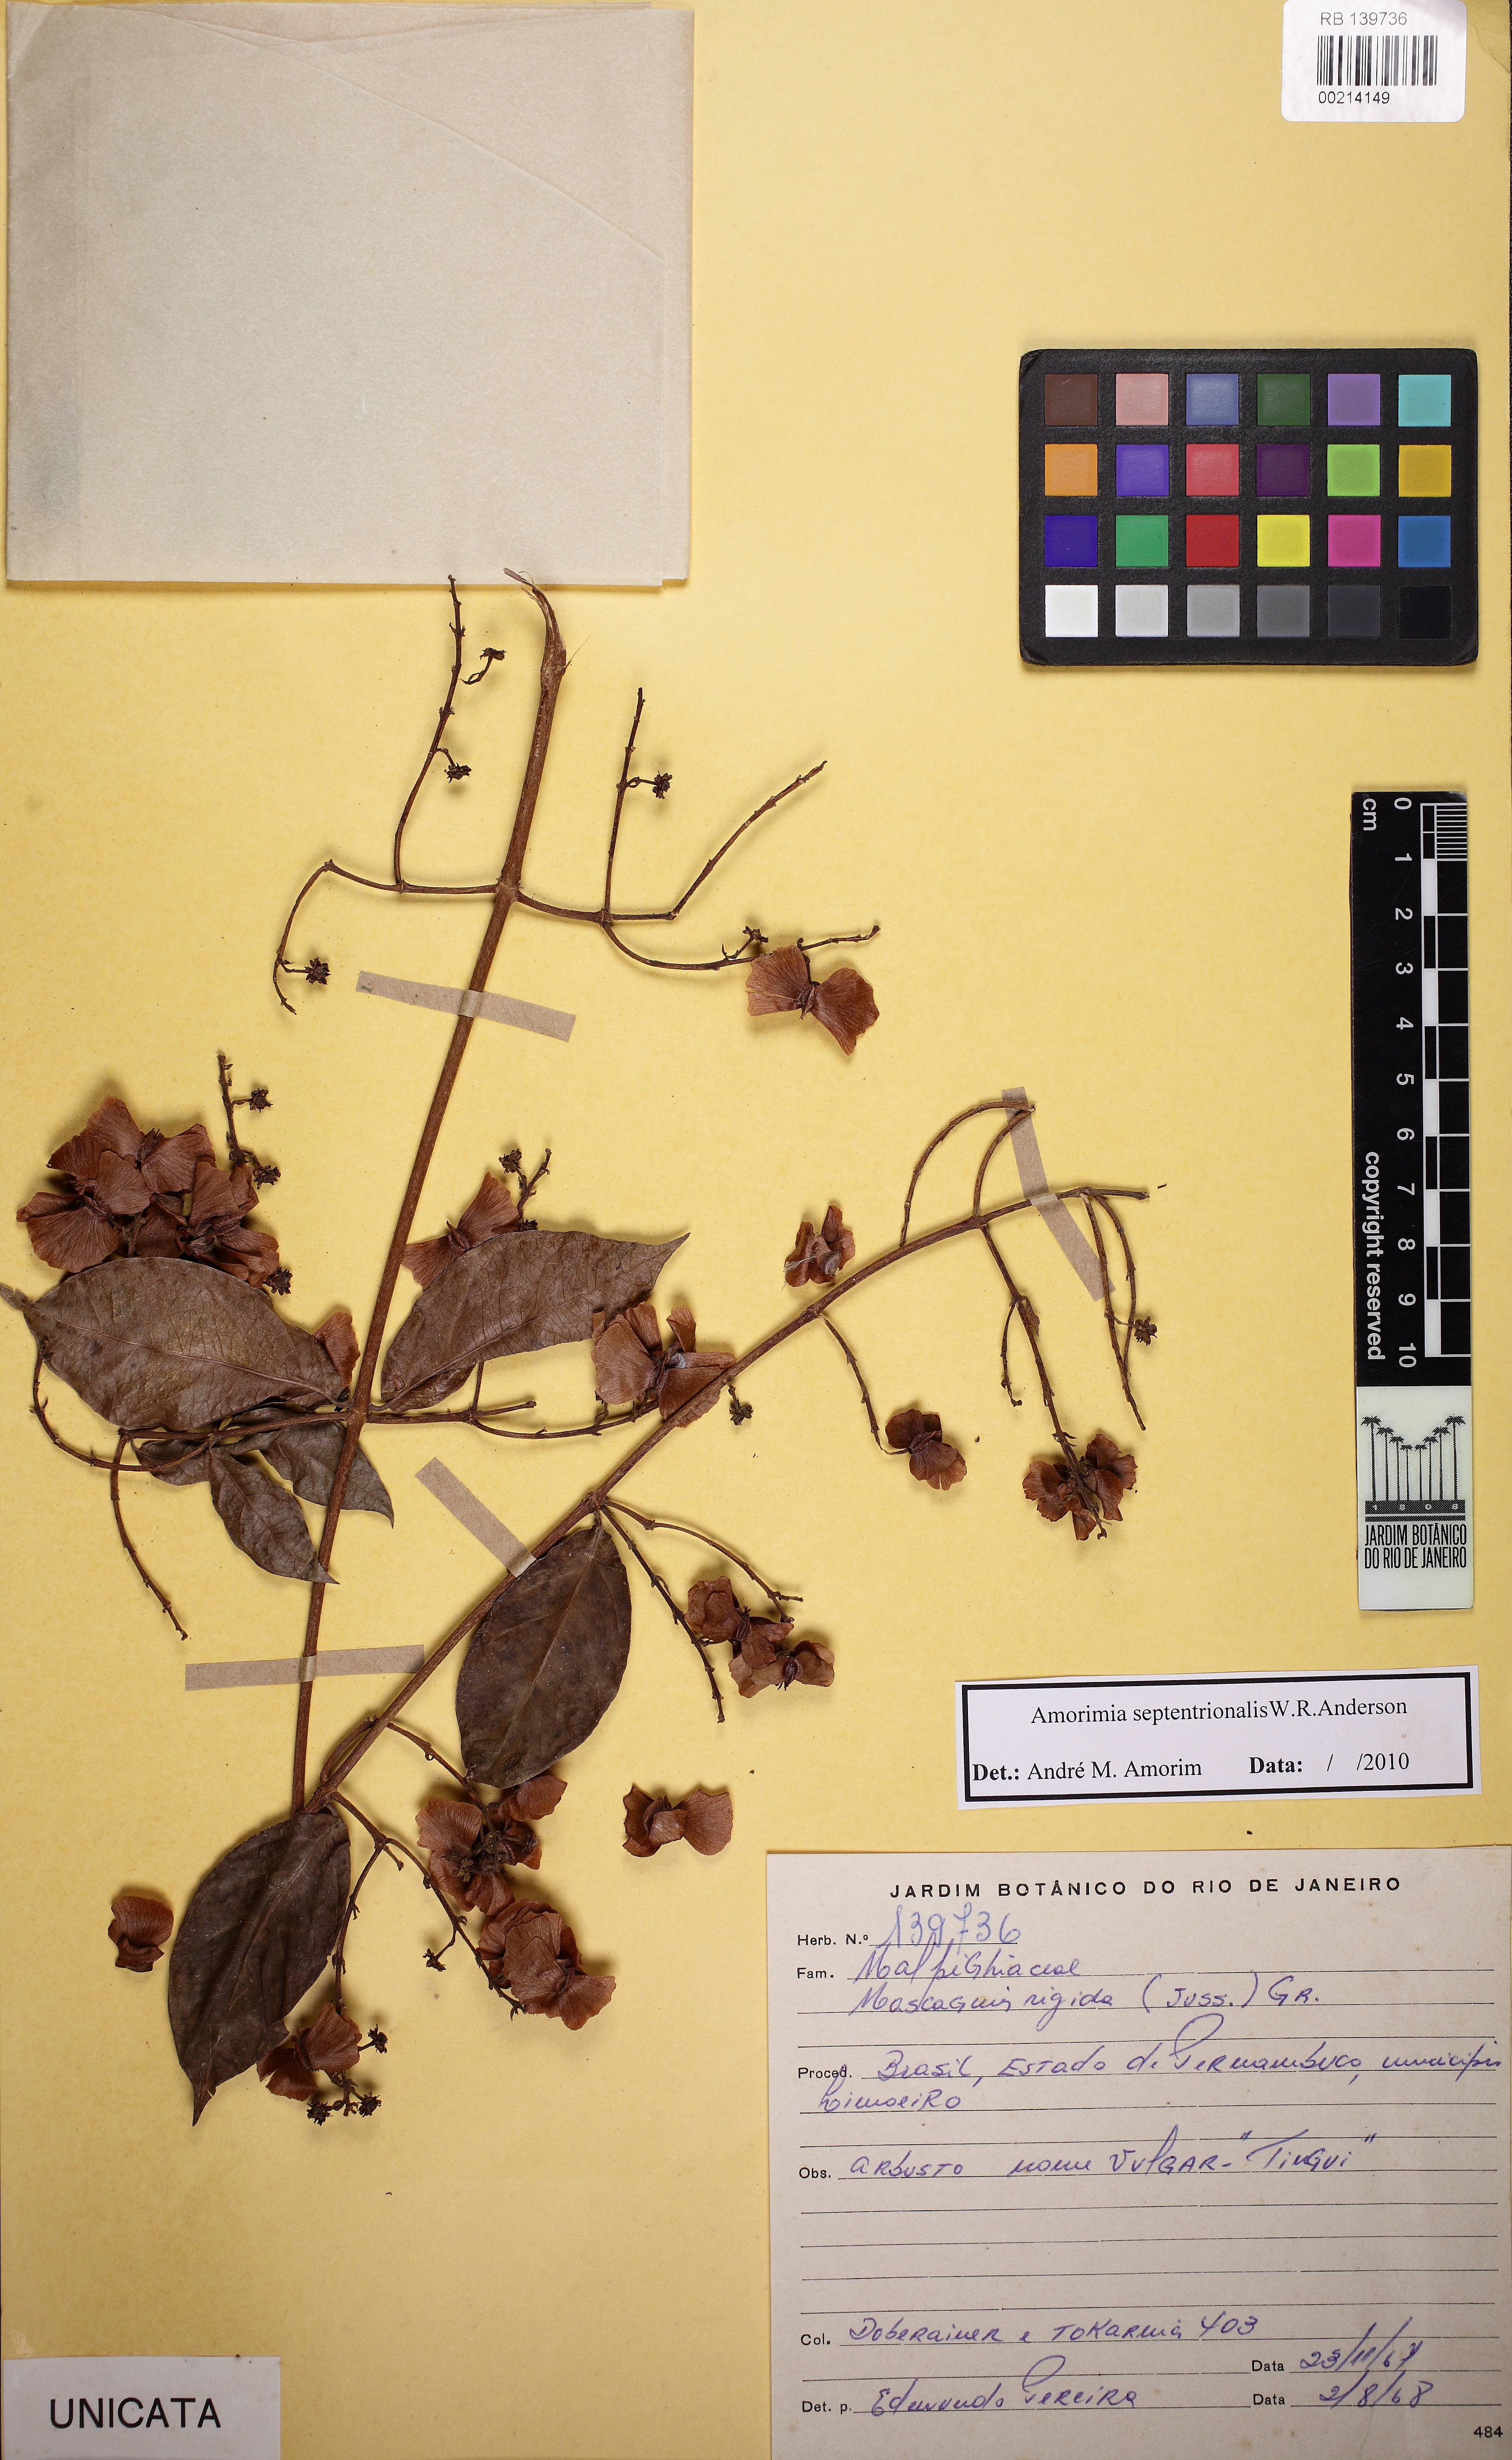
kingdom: Plantae
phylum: Tracheophyta
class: Magnoliopsida
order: Malpighiales
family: Malpighiaceae
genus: Amorimia
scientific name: Amorimia septentrionalis
